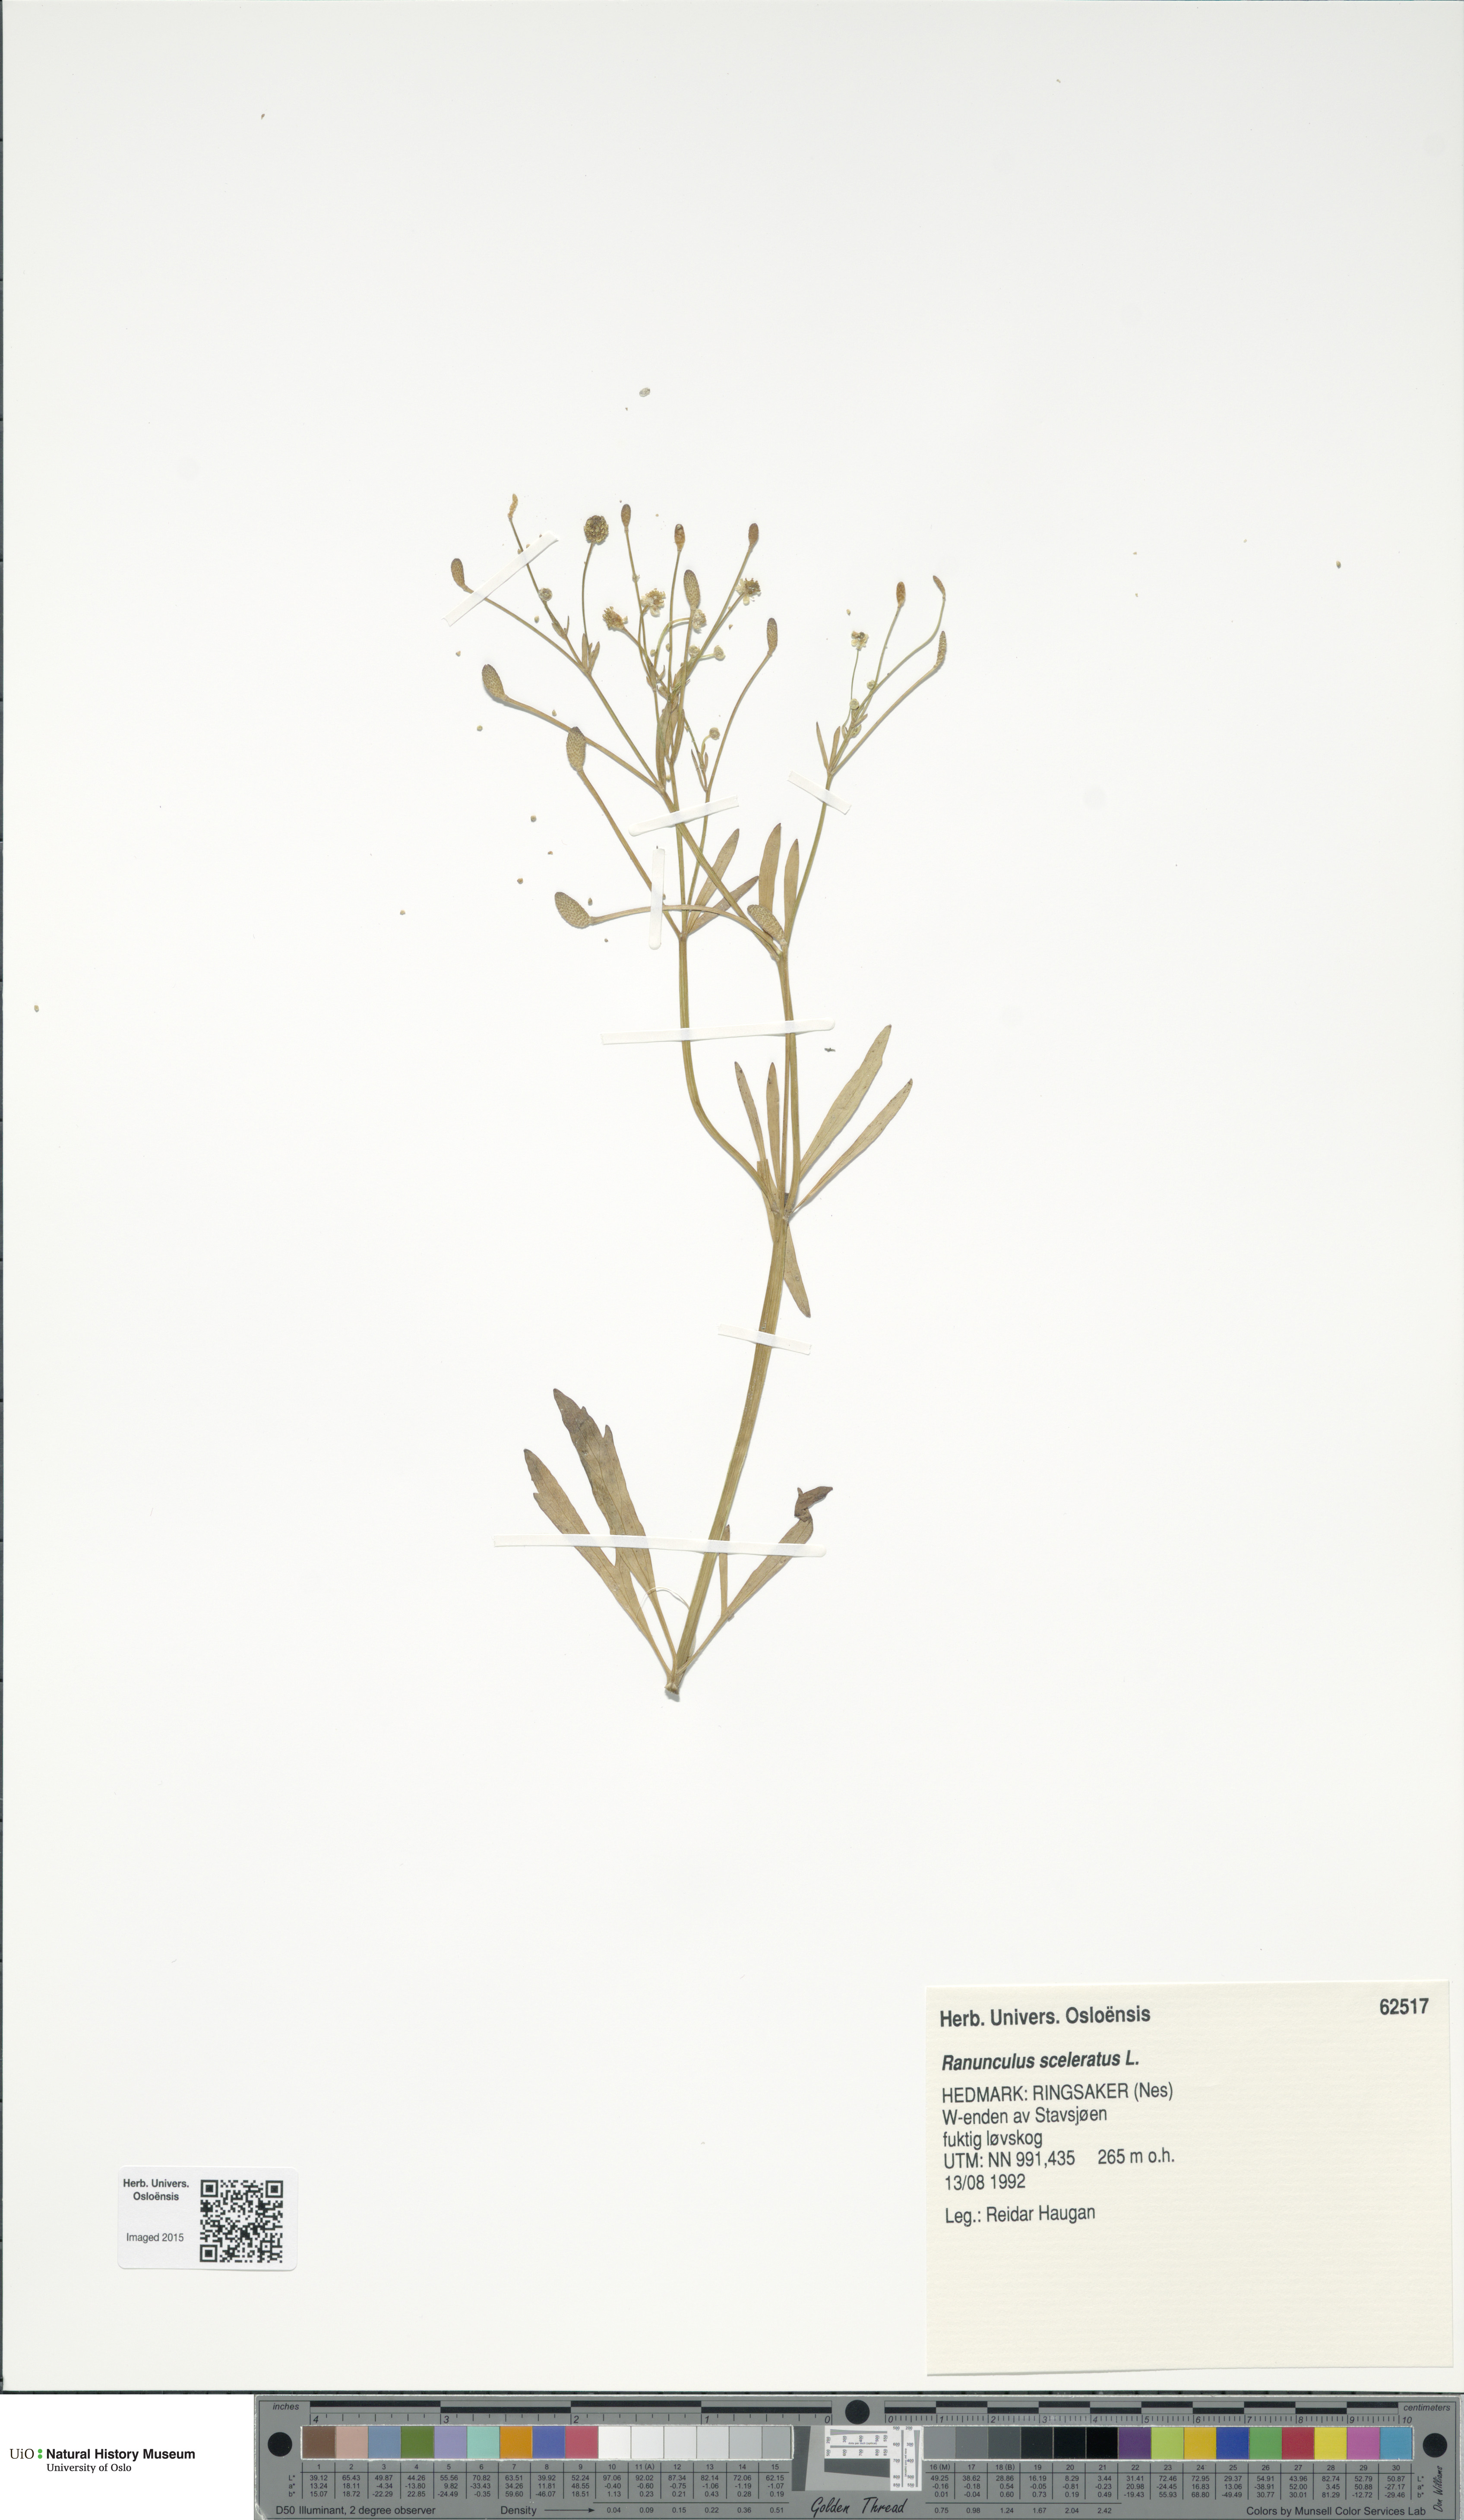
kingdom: Plantae
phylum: Tracheophyta
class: Magnoliopsida
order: Ranunculales
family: Ranunculaceae
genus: Ranunculus
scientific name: Ranunculus sceleratus
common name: Celery-leaved buttercup
